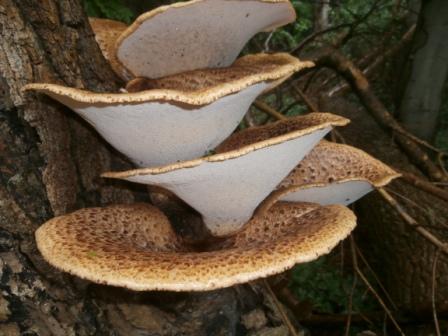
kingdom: Fungi
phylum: Basidiomycota
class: Agaricomycetes
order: Polyporales
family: Polyporaceae
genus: Cerioporus
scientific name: Cerioporus squamosus
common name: skællet stilkporesvamp
